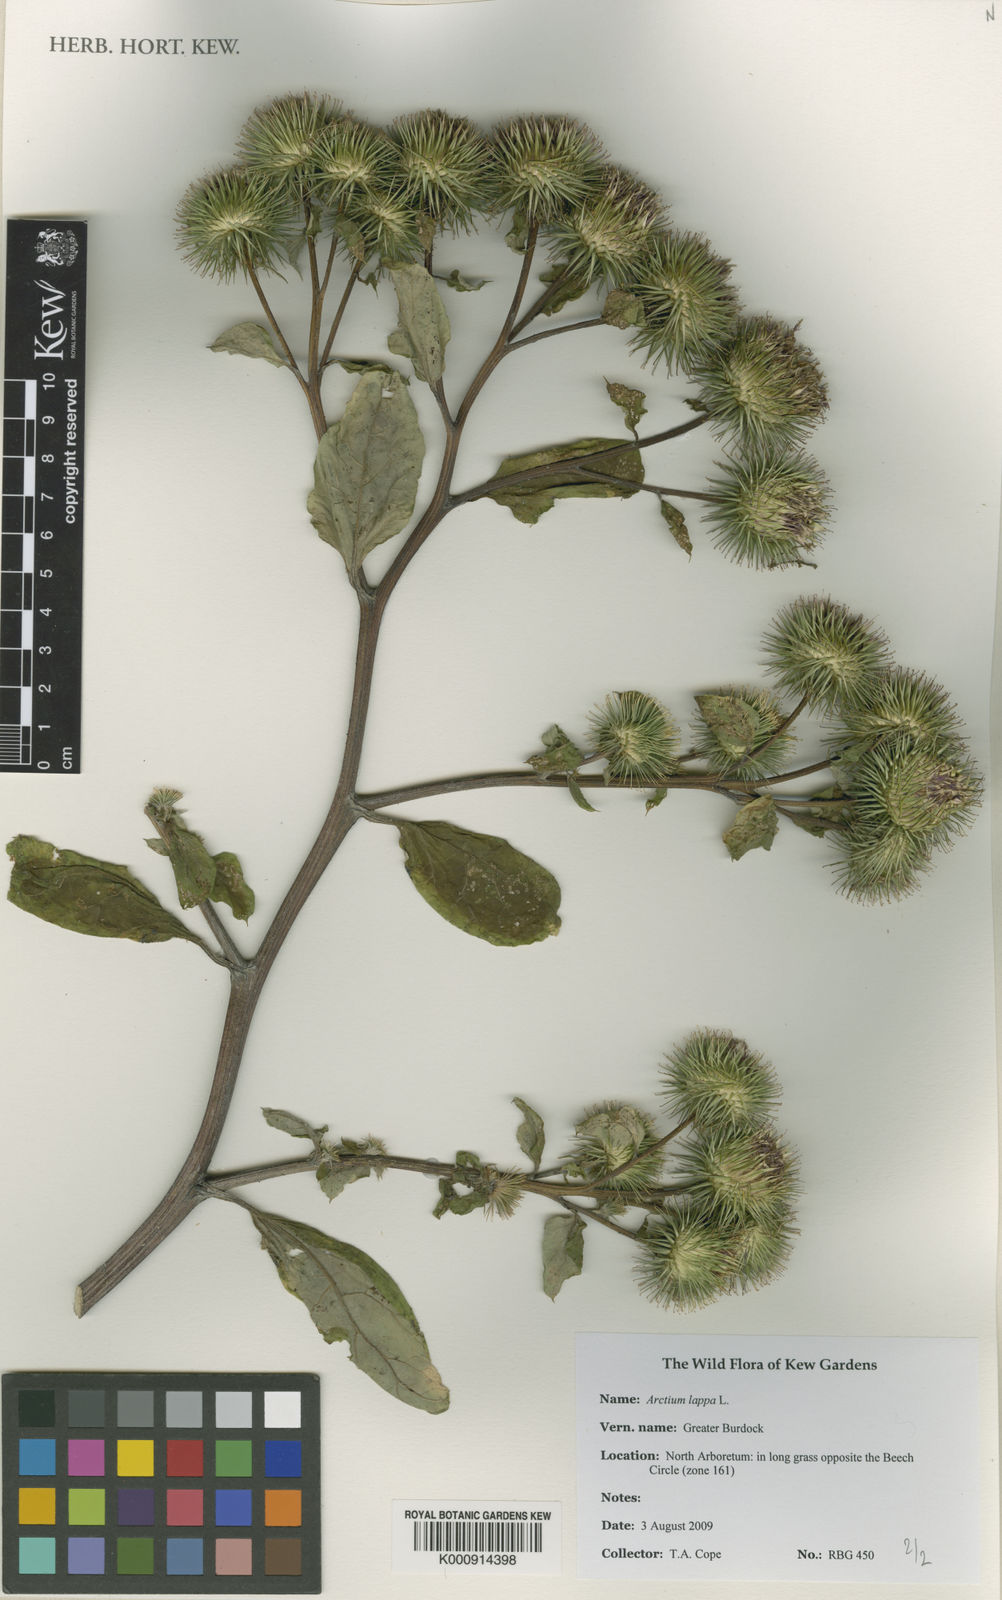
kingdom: Plantae
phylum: Tracheophyta
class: Magnoliopsida
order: Asterales
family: Asteraceae
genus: Arctium
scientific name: Arctium lappa
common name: Greater burdock
